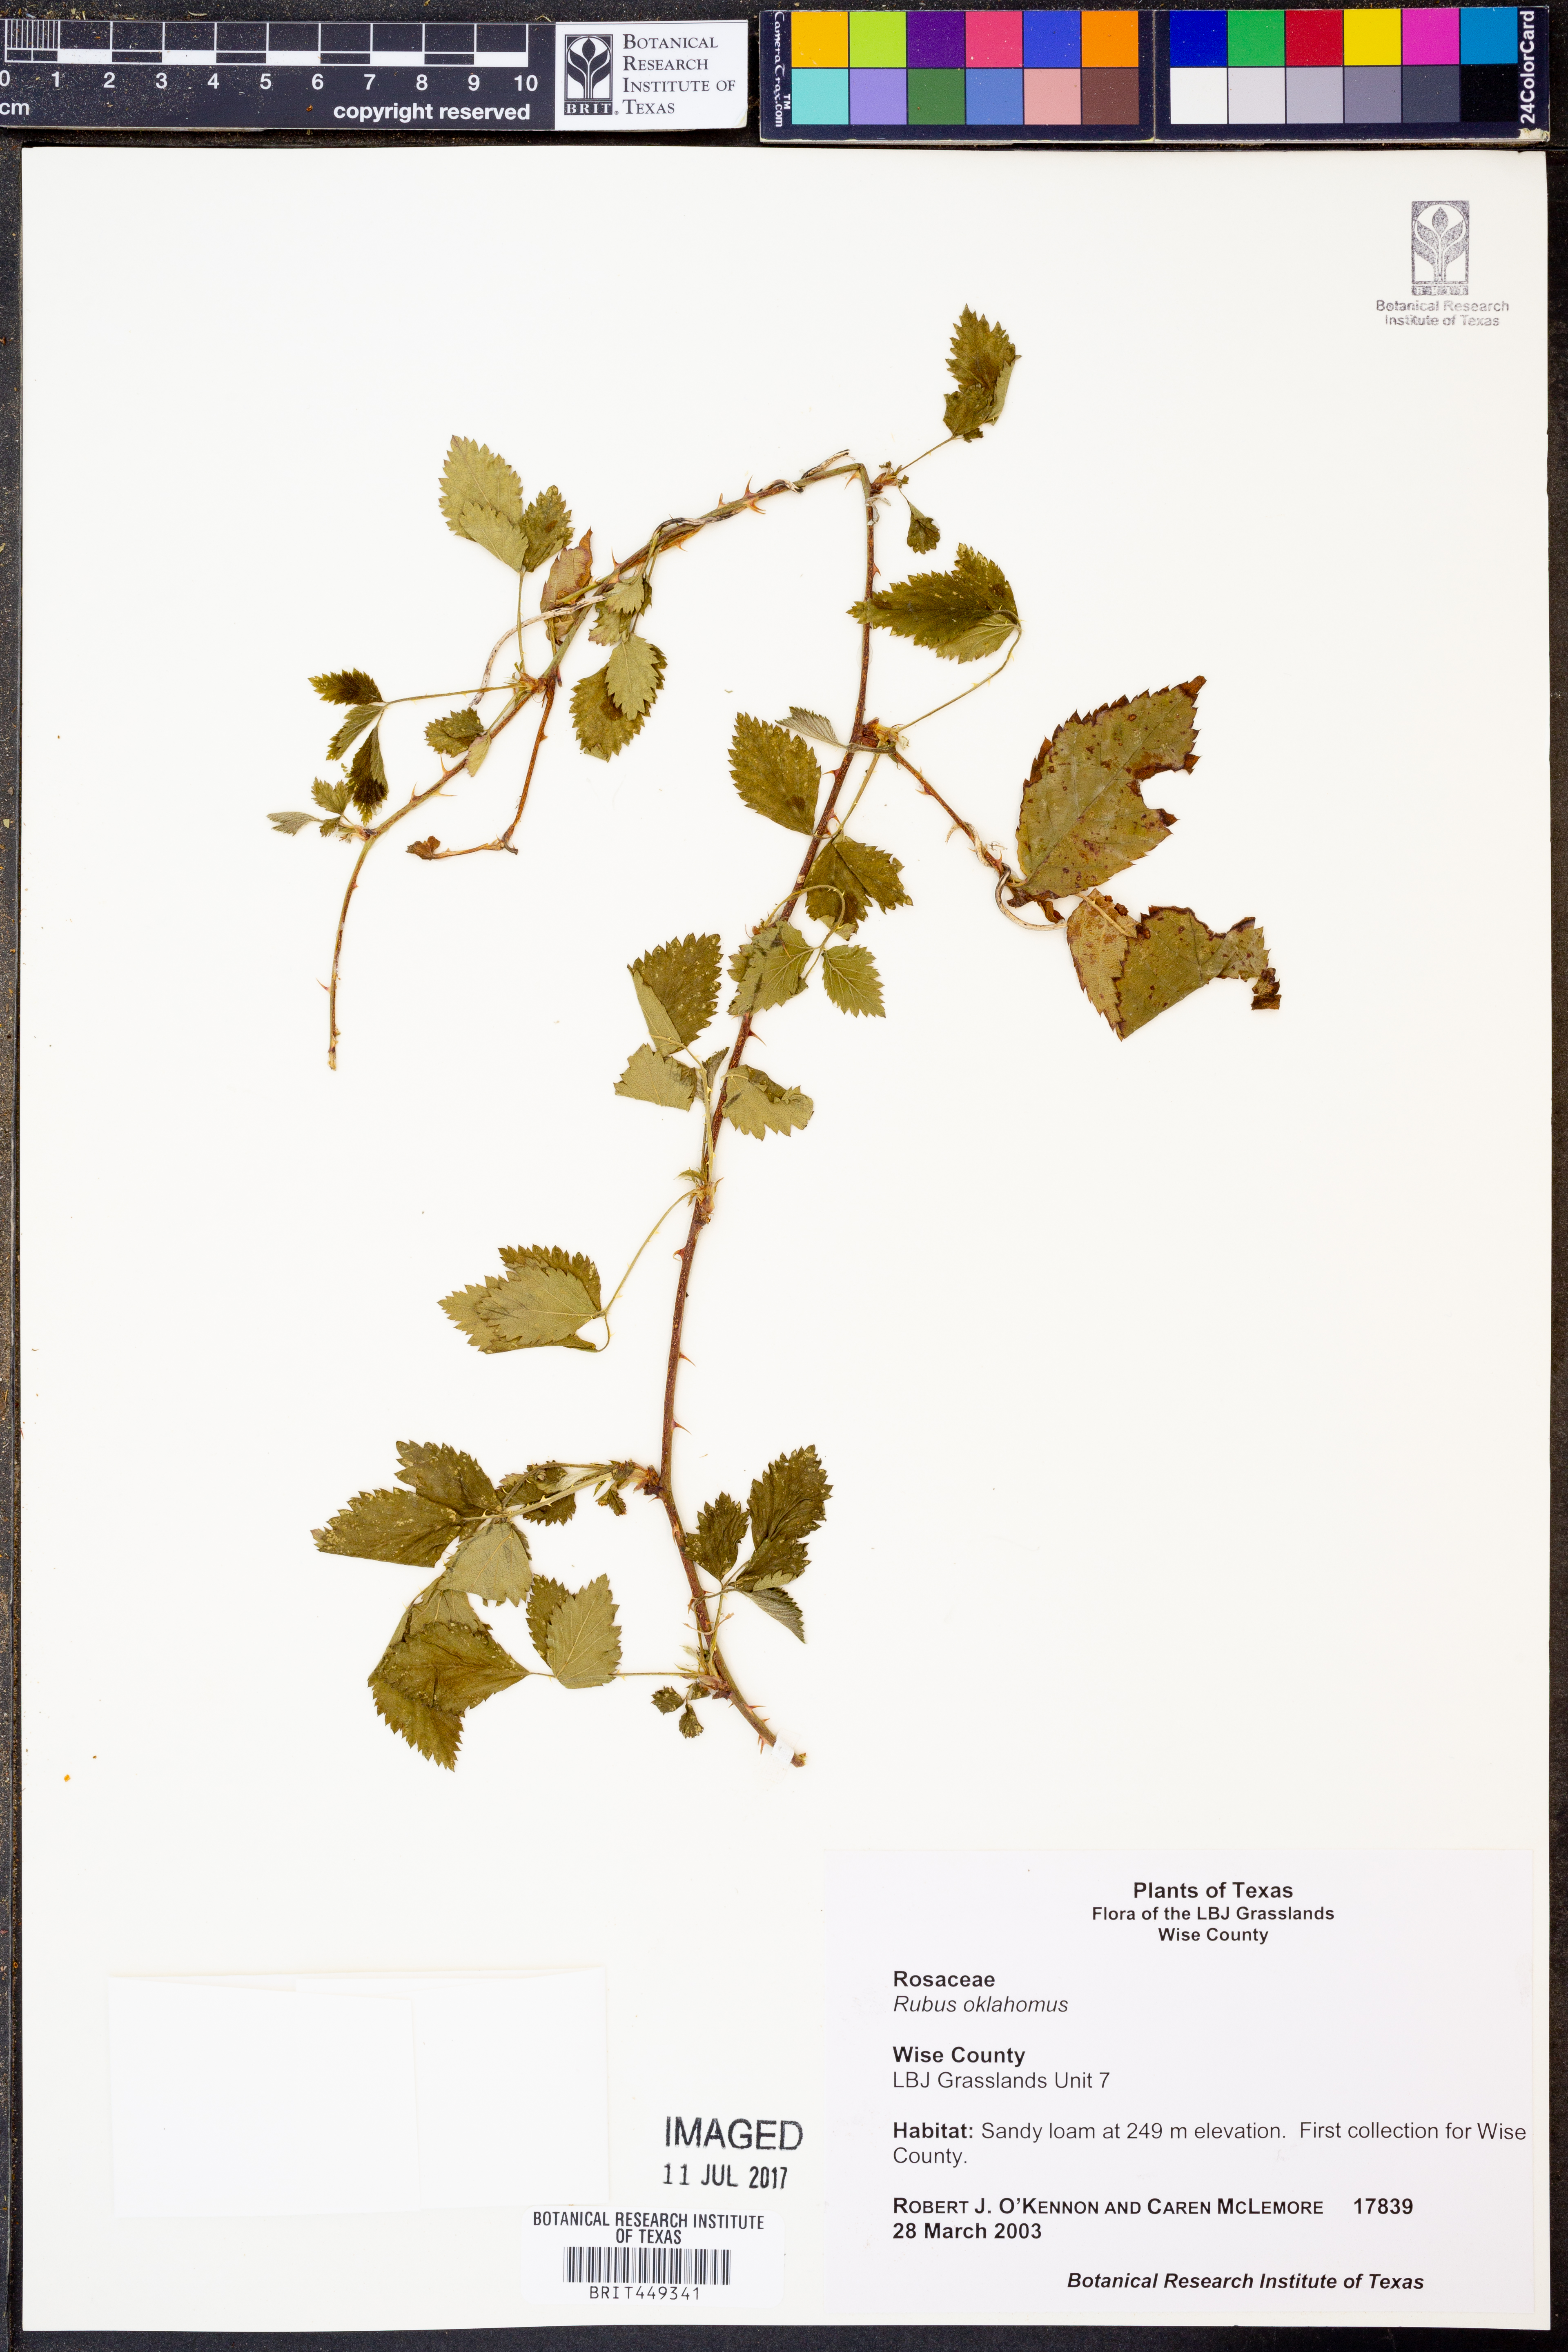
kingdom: Plantae
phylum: Tracheophyta
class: Magnoliopsida
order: Rosales
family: Rosaceae
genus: Rubus
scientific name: Rubus oklahomus
